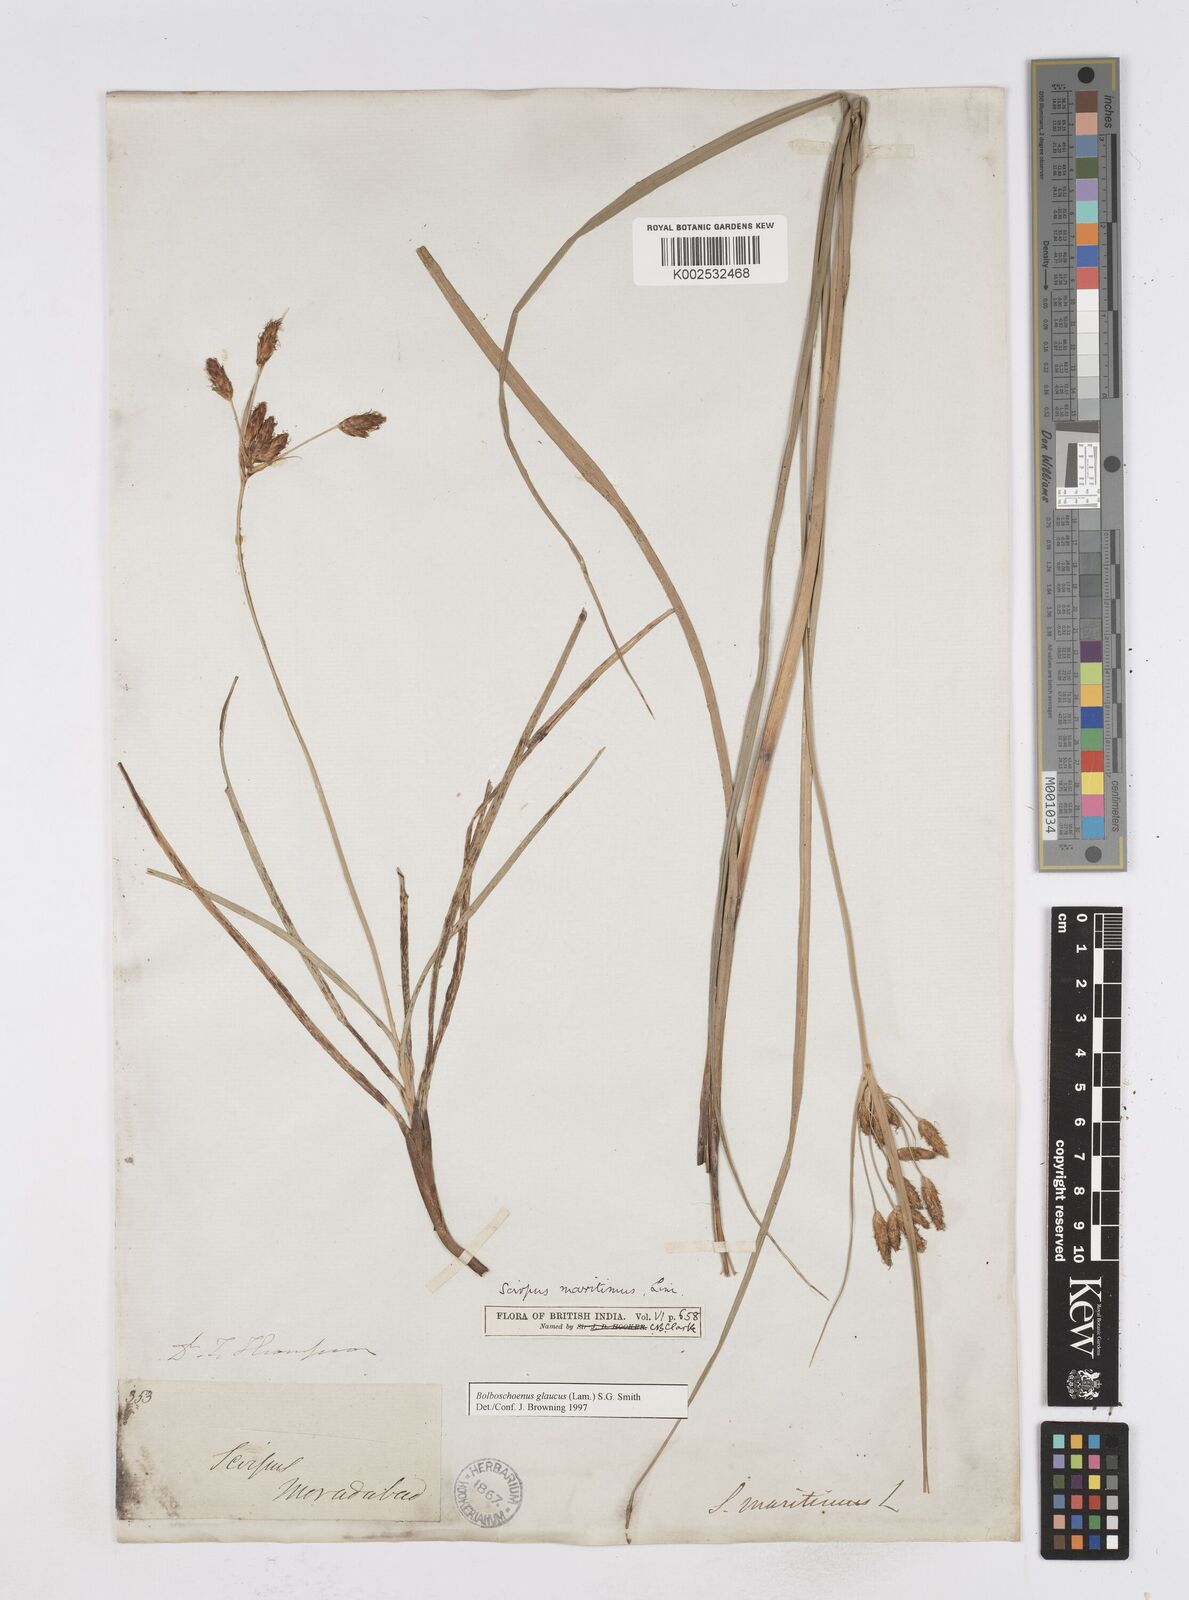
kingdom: Plantae
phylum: Tracheophyta
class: Liliopsida
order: Poales
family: Cyperaceae
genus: Bolboschoenus
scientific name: Bolboschoenus maritimus
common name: Sea club-rush
